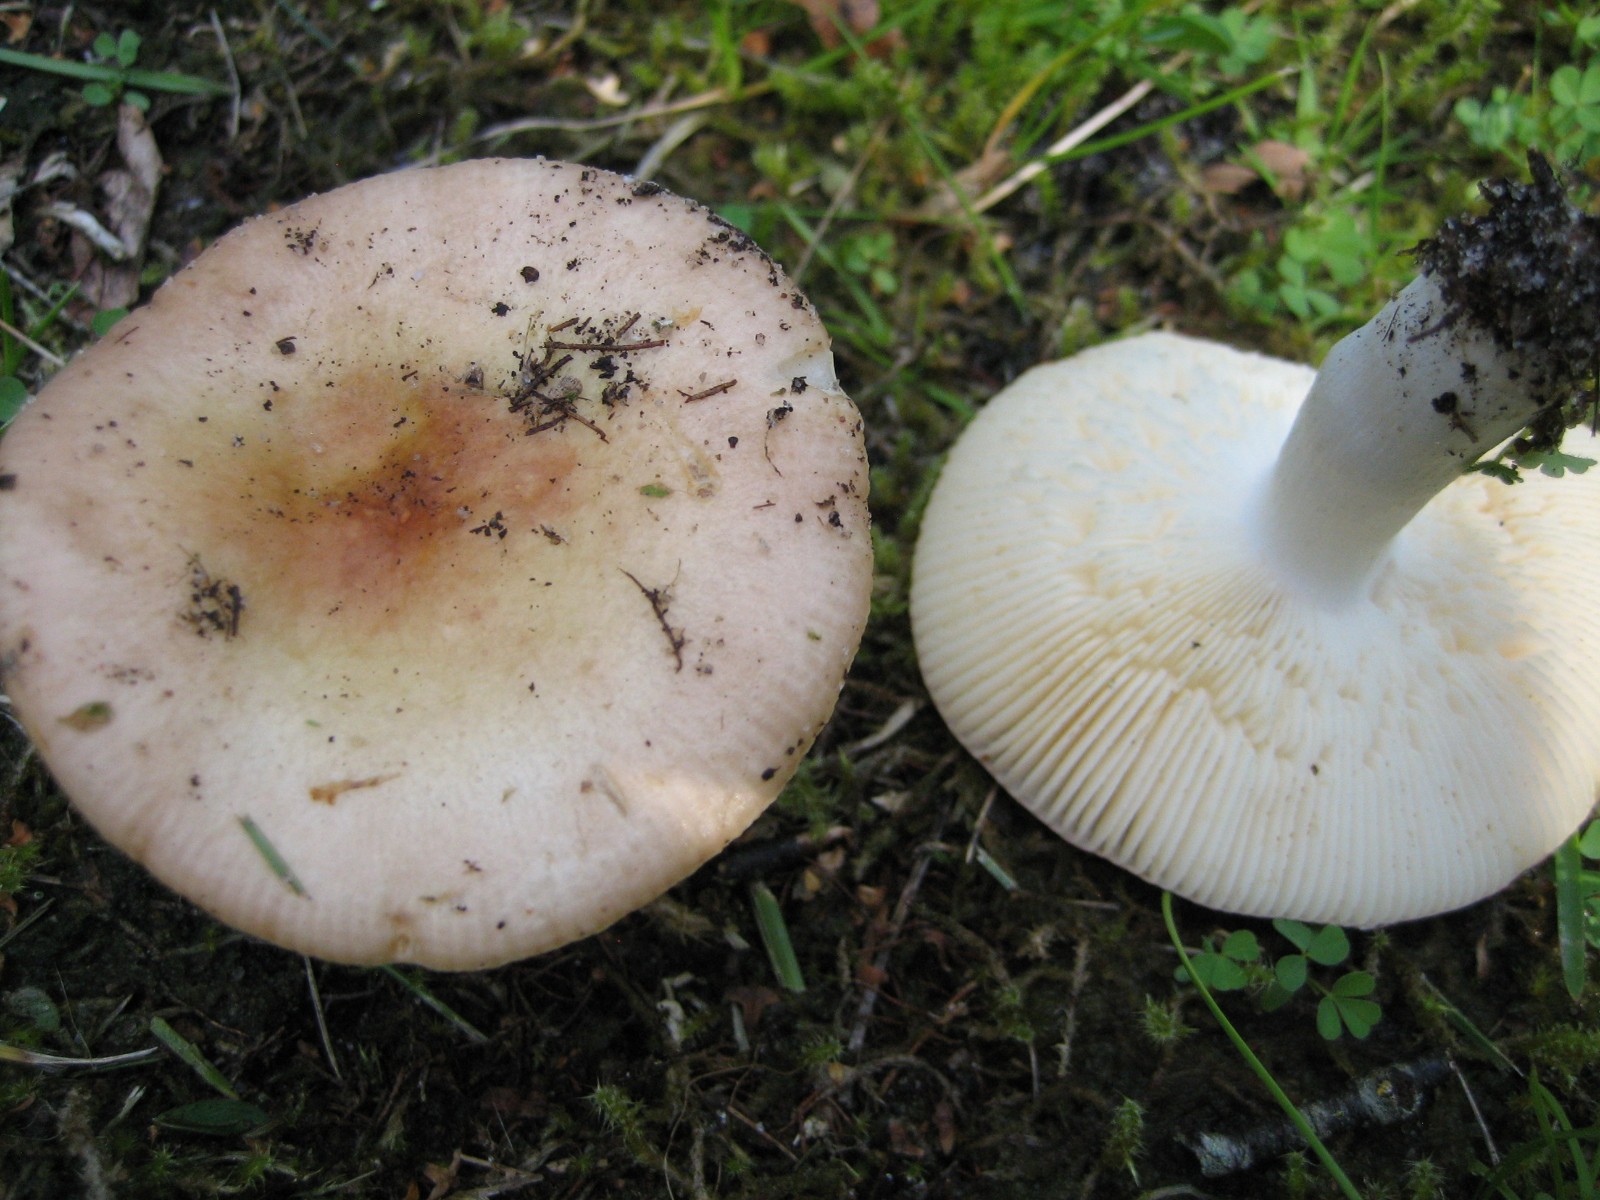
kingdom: Fungi
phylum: Basidiomycota
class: Agaricomycetes
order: Russulales
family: Russulaceae
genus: Russula
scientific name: Russula
